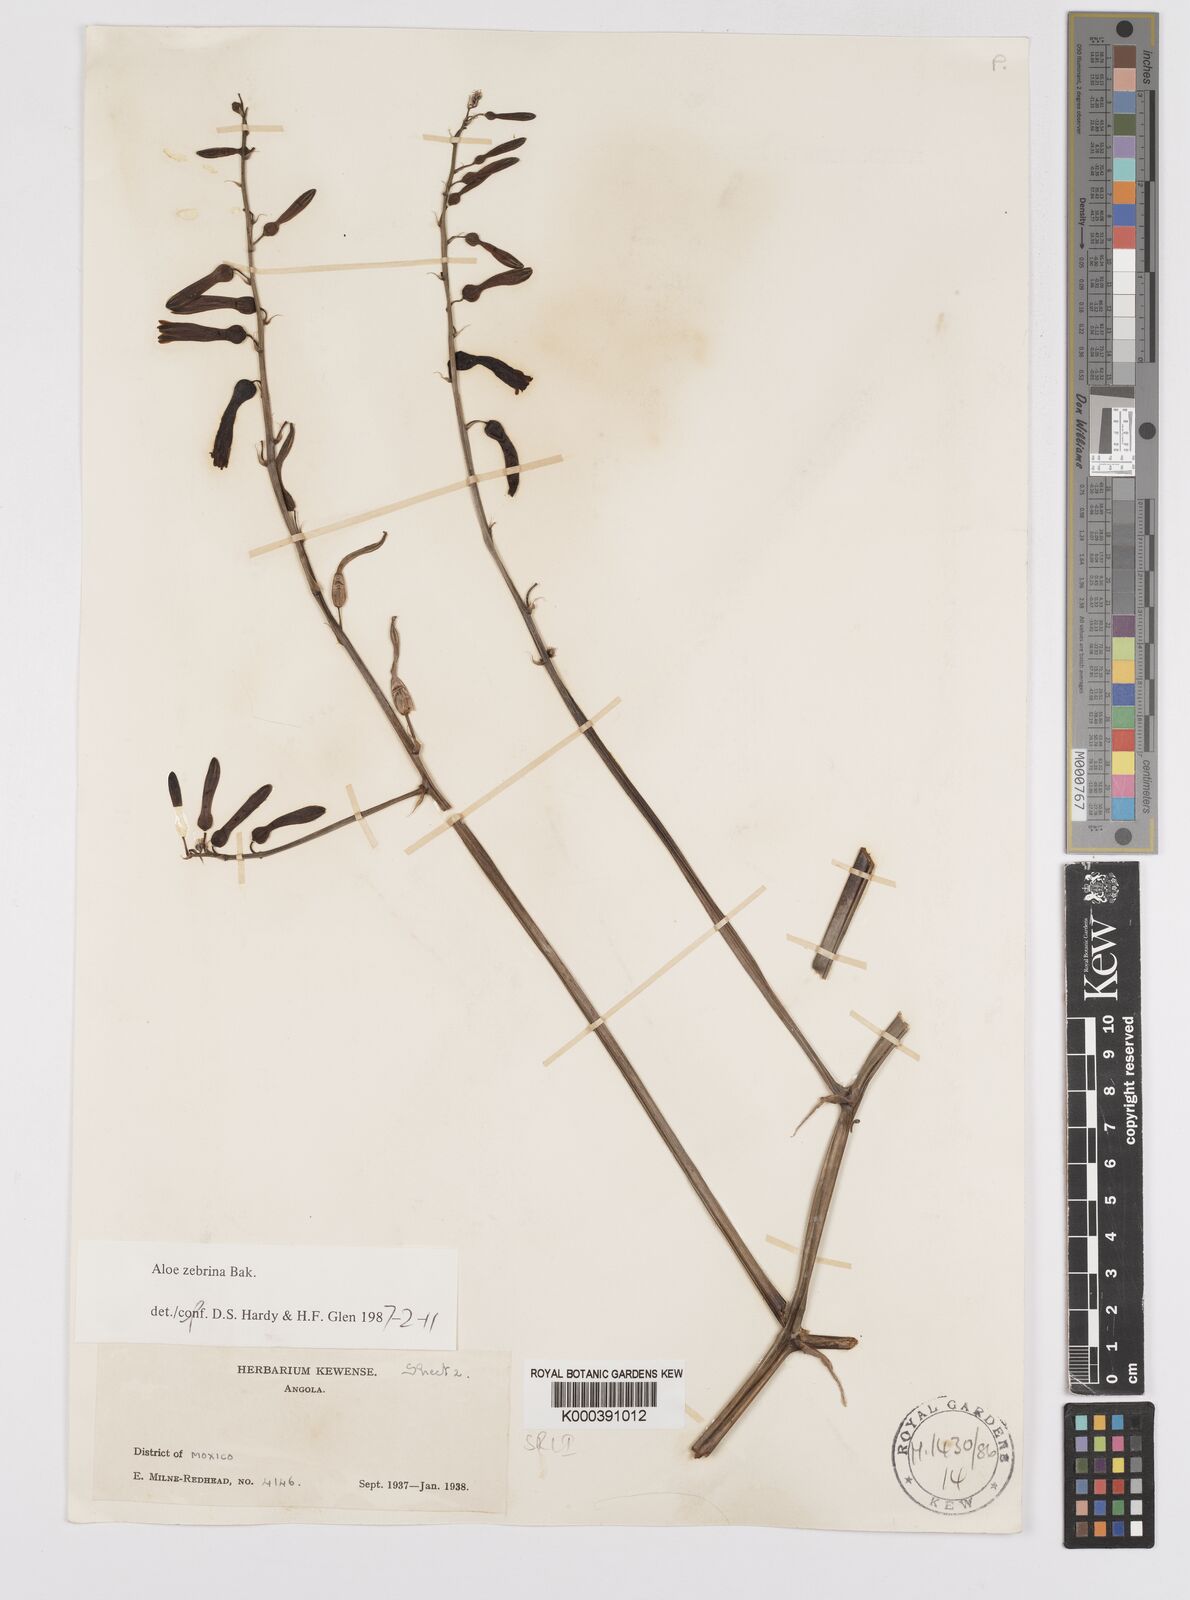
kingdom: Plantae
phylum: Tracheophyta
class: Liliopsida
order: Asparagales
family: Asphodelaceae
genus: Aloe
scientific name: Aloe zebrina
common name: Zebra-leaf aloe
